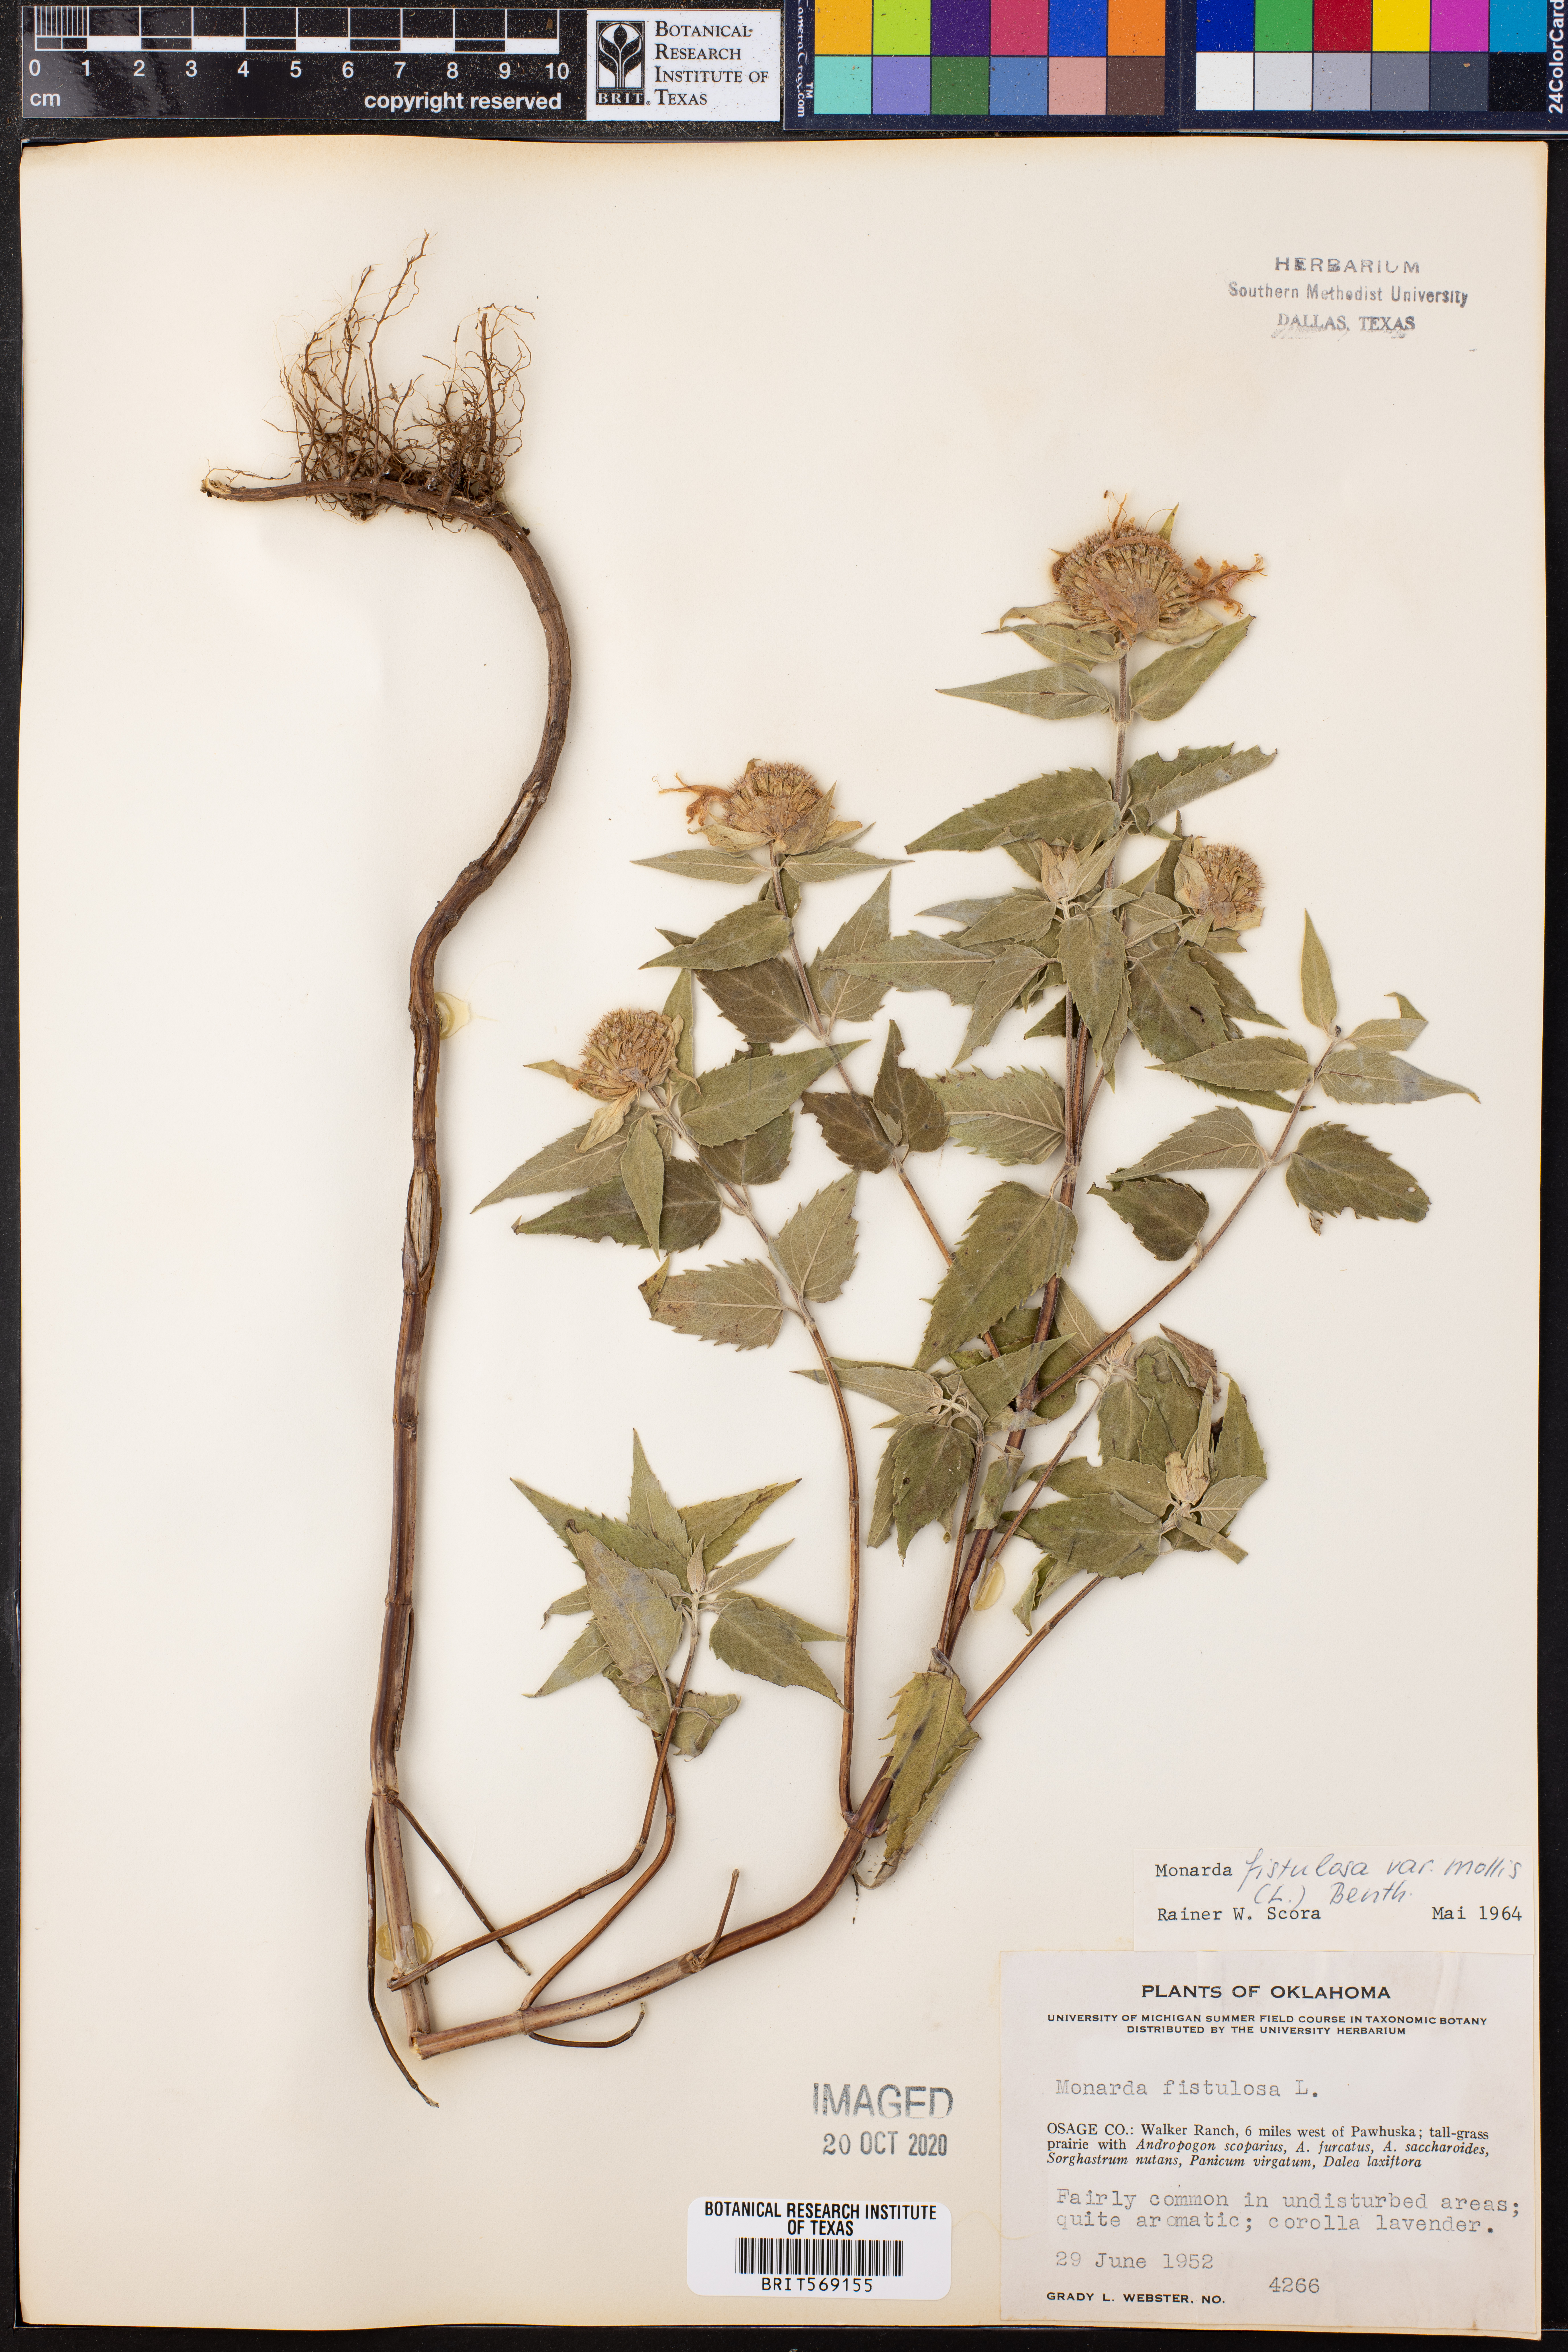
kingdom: Plantae
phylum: Tracheophyta
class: Magnoliopsida
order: Lamiales
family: Lamiaceae
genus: Monarda
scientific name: Monarda fistulosa
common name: Purple beebalm
